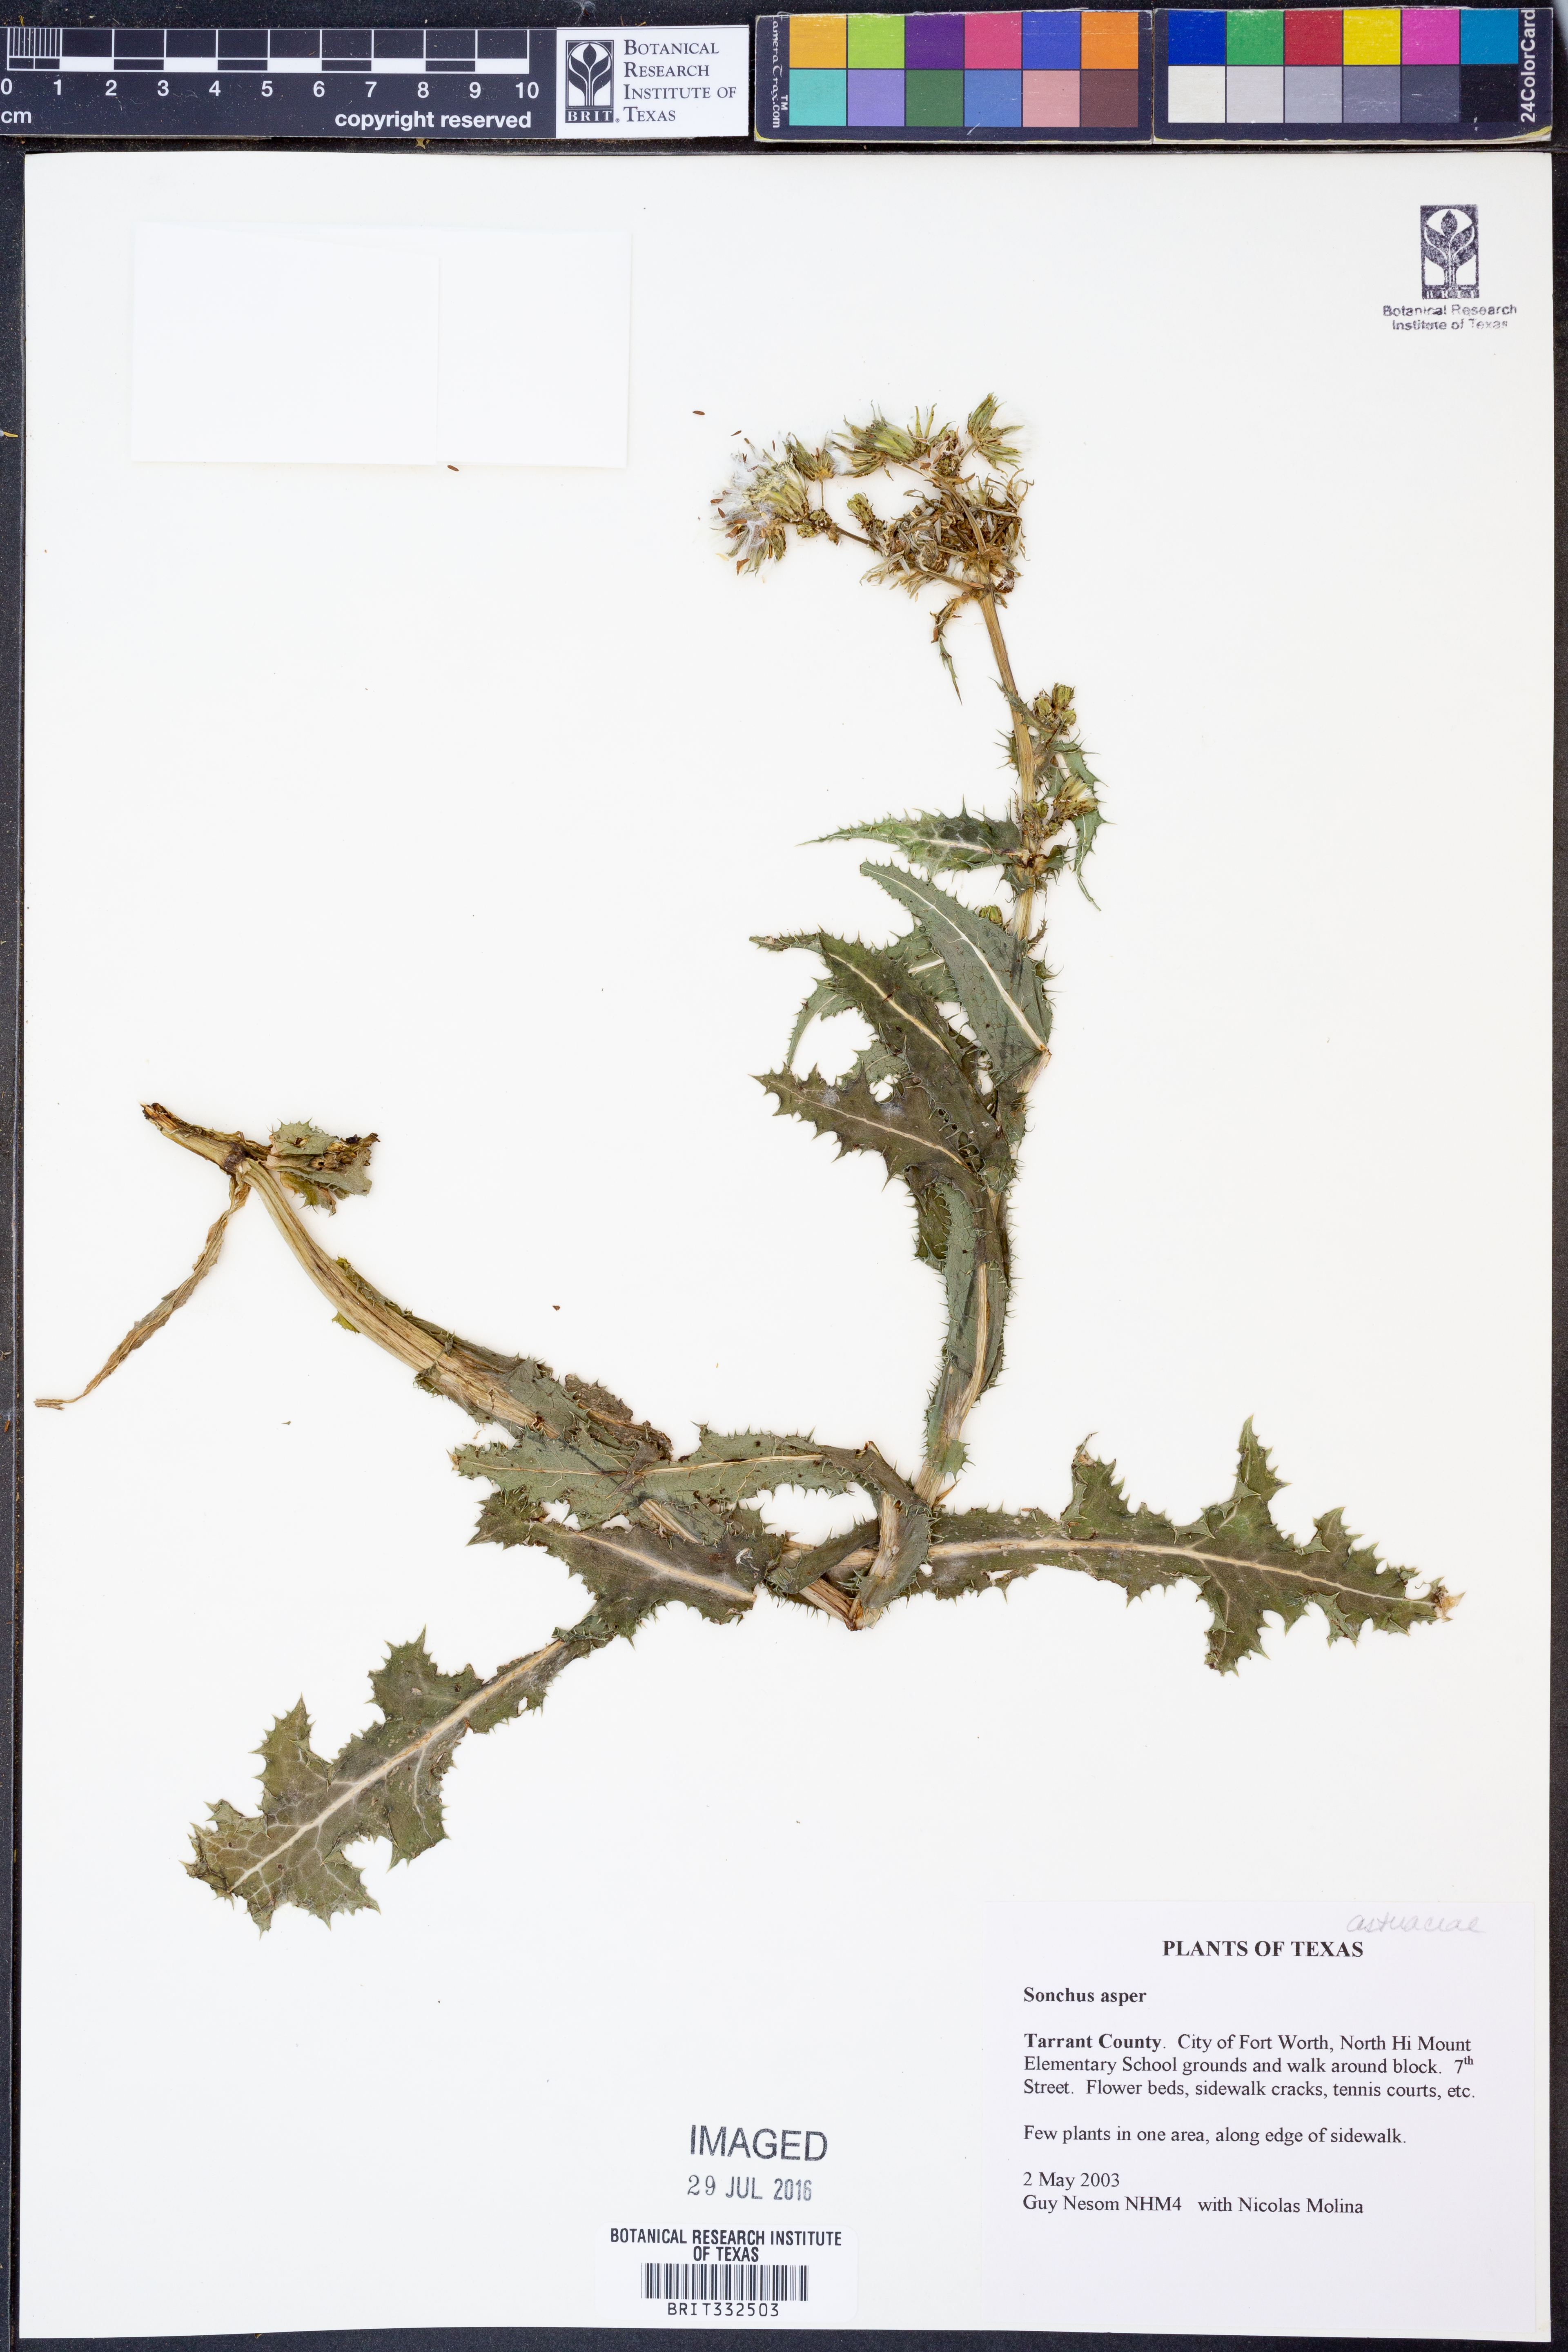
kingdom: Plantae
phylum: Tracheophyta
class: Magnoliopsida
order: Asterales
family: Asteraceae
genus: Sonchus
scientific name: Sonchus asper
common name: Prickly sow-thistle
